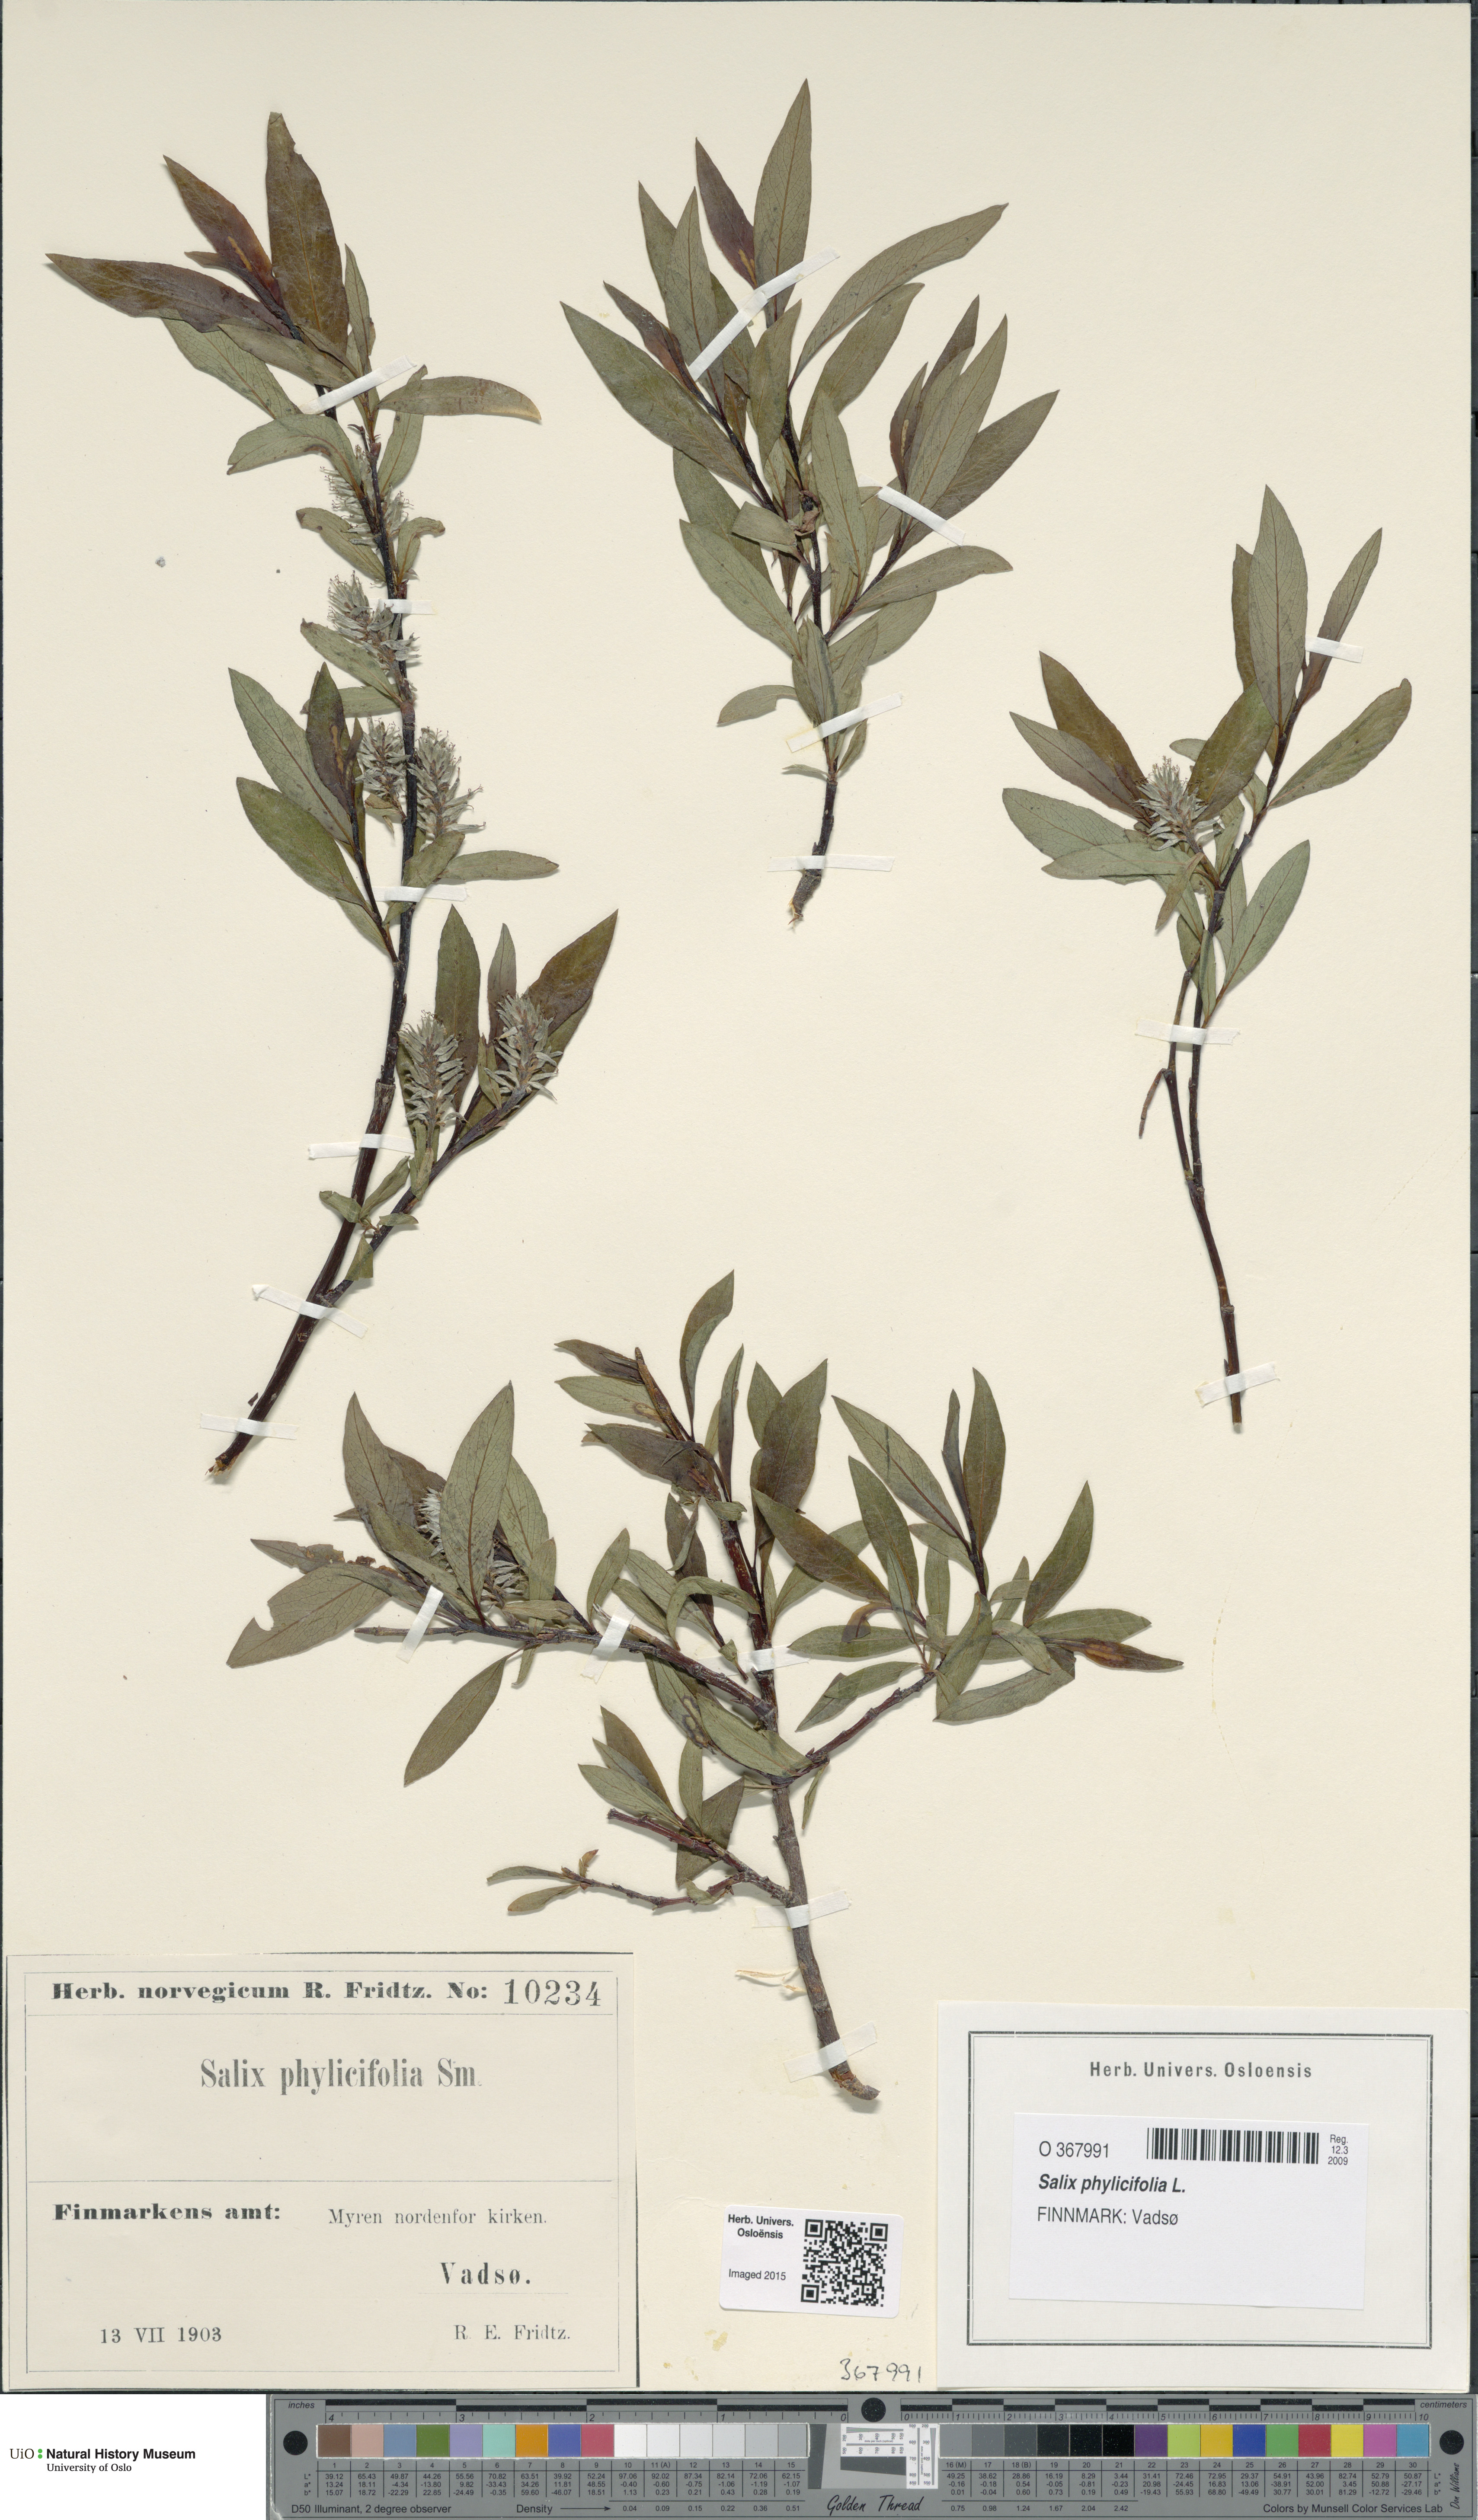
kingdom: Plantae
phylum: Tracheophyta
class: Magnoliopsida
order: Malpighiales
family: Salicaceae
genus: Salix
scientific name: Salix phylicifolia
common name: Tea-leaved willow
